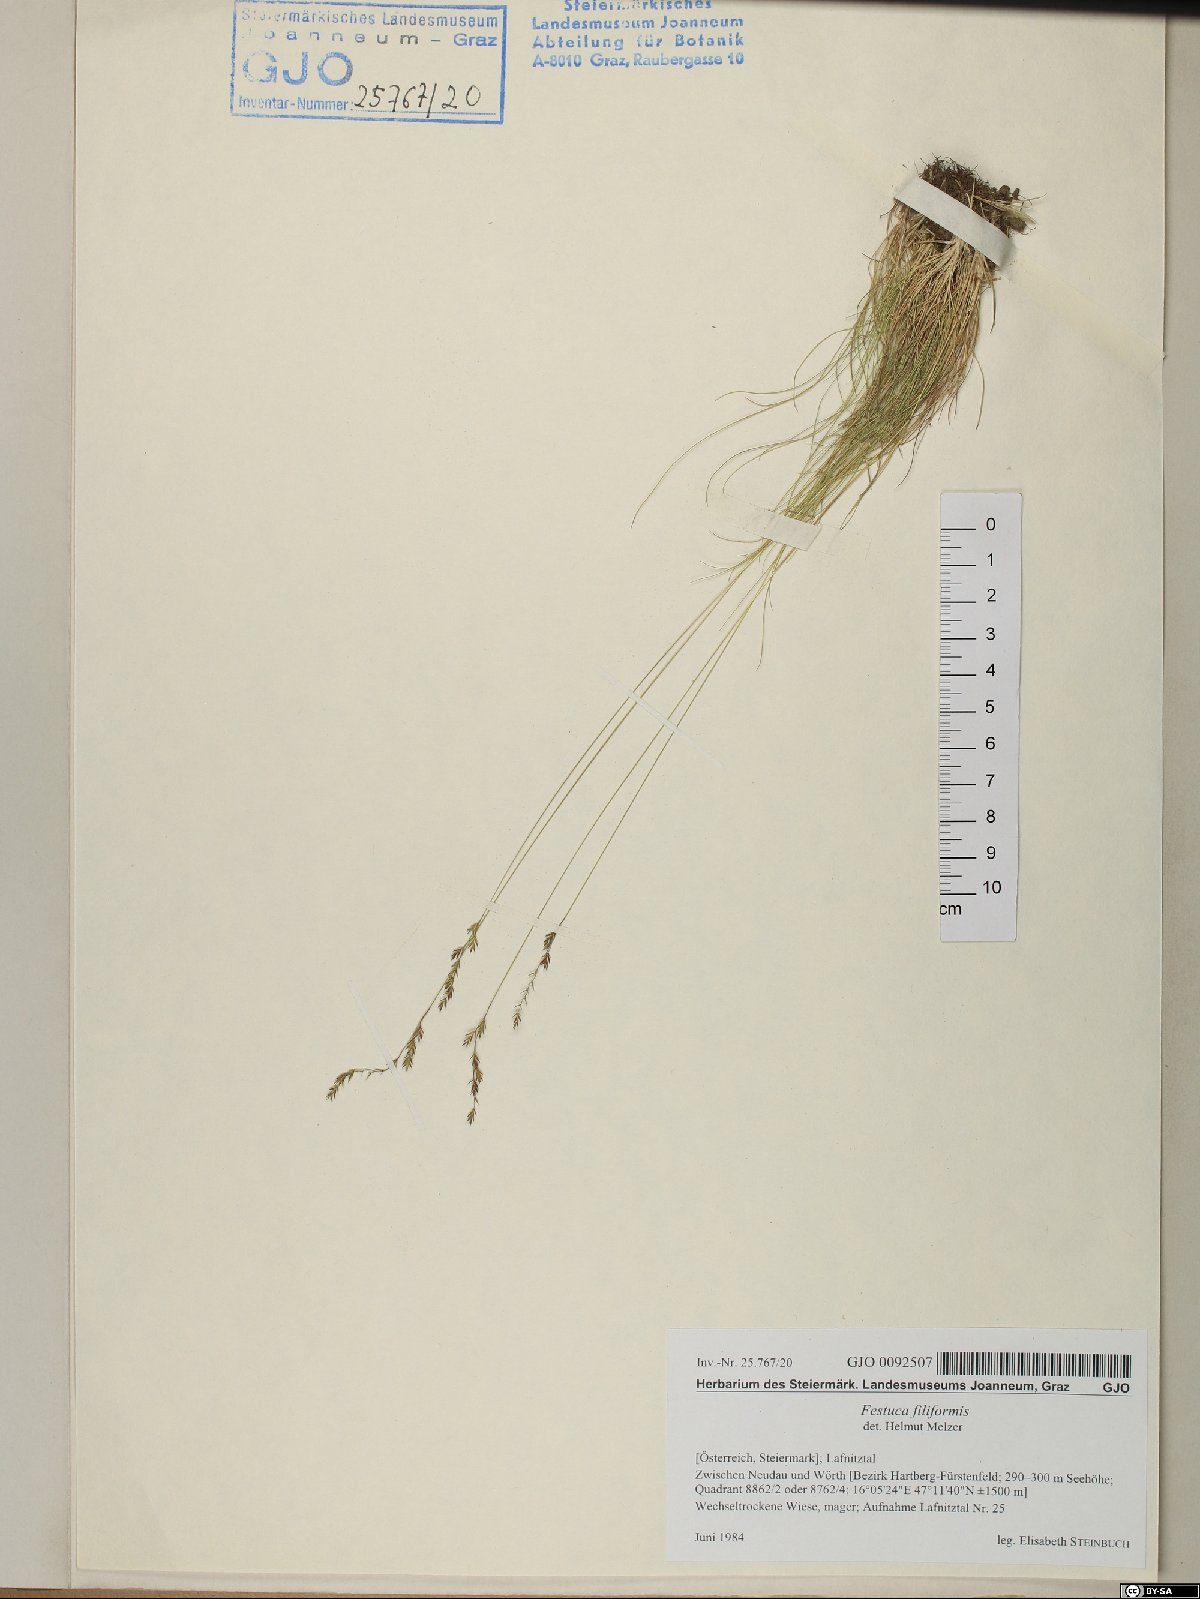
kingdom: Plantae
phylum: Tracheophyta
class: Liliopsida
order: Poales
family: Poaceae
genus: Festuca
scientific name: Festuca filiformis
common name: Fine-leaved sheep's-fescue
